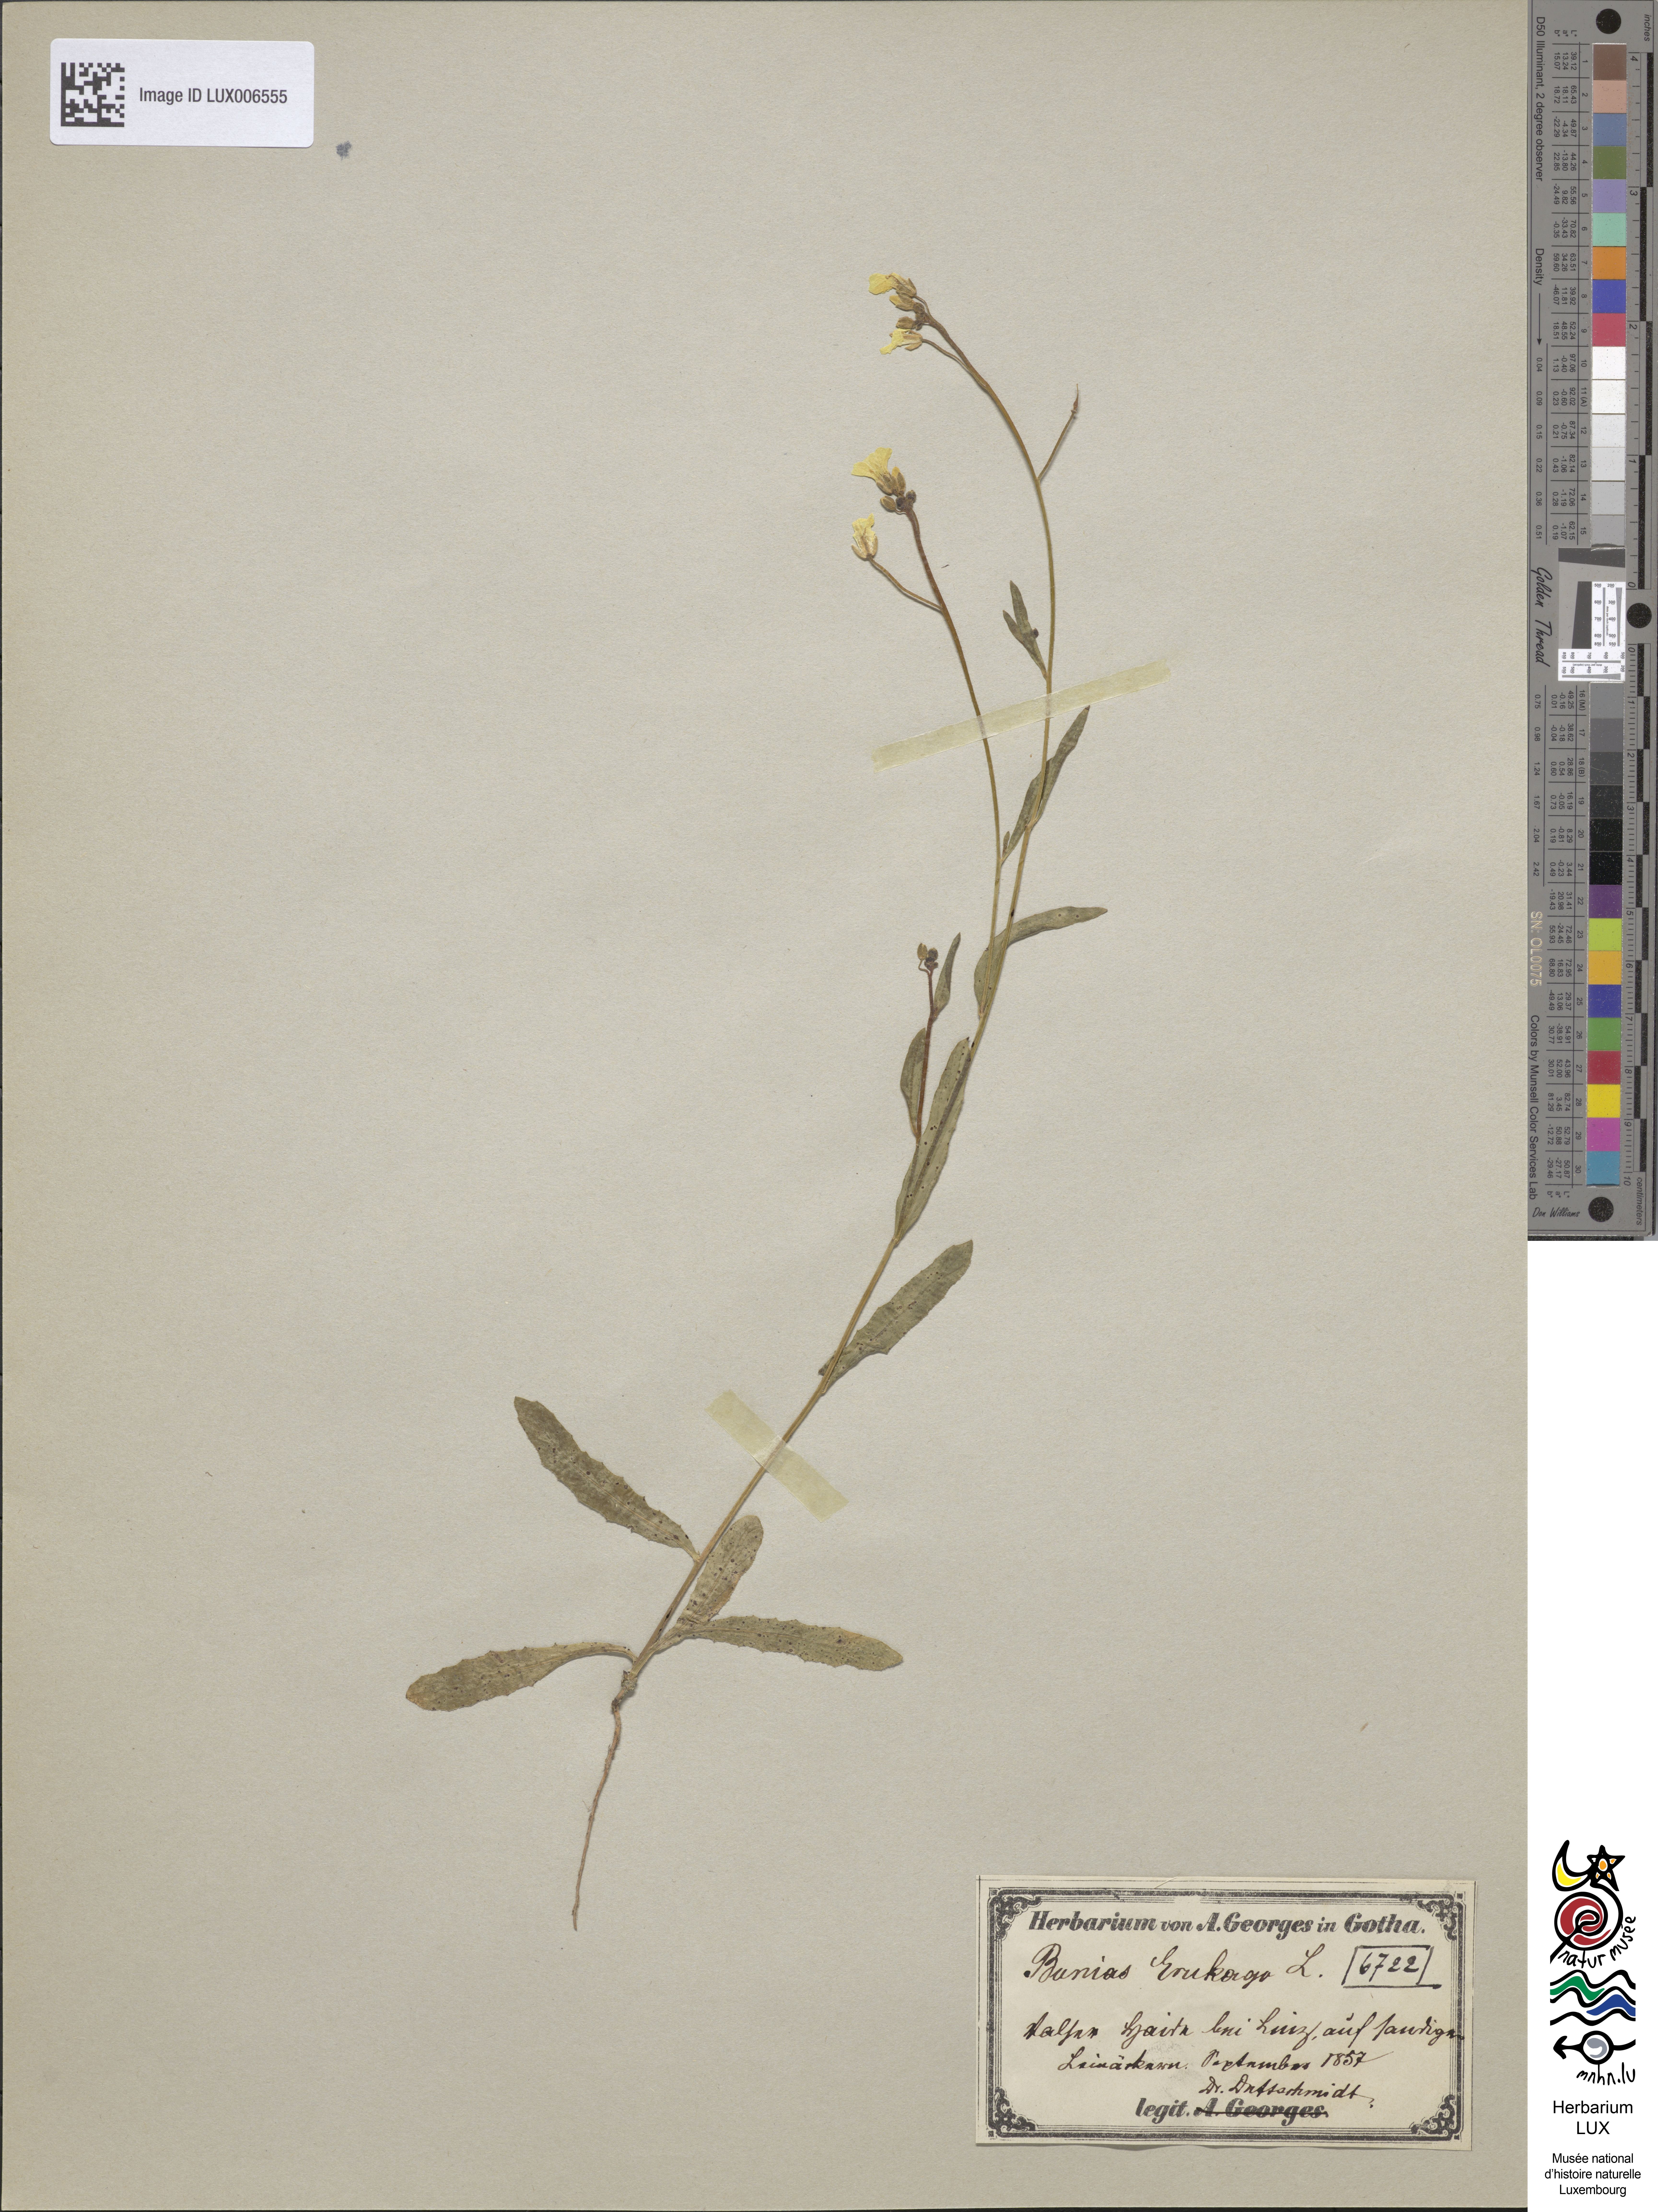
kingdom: Plantae
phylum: Tracheophyta
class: Magnoliopsida
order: Brassicales
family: Brassicaceae
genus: Bunias
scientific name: Bunias erucago
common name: Southern warty-cabbage
